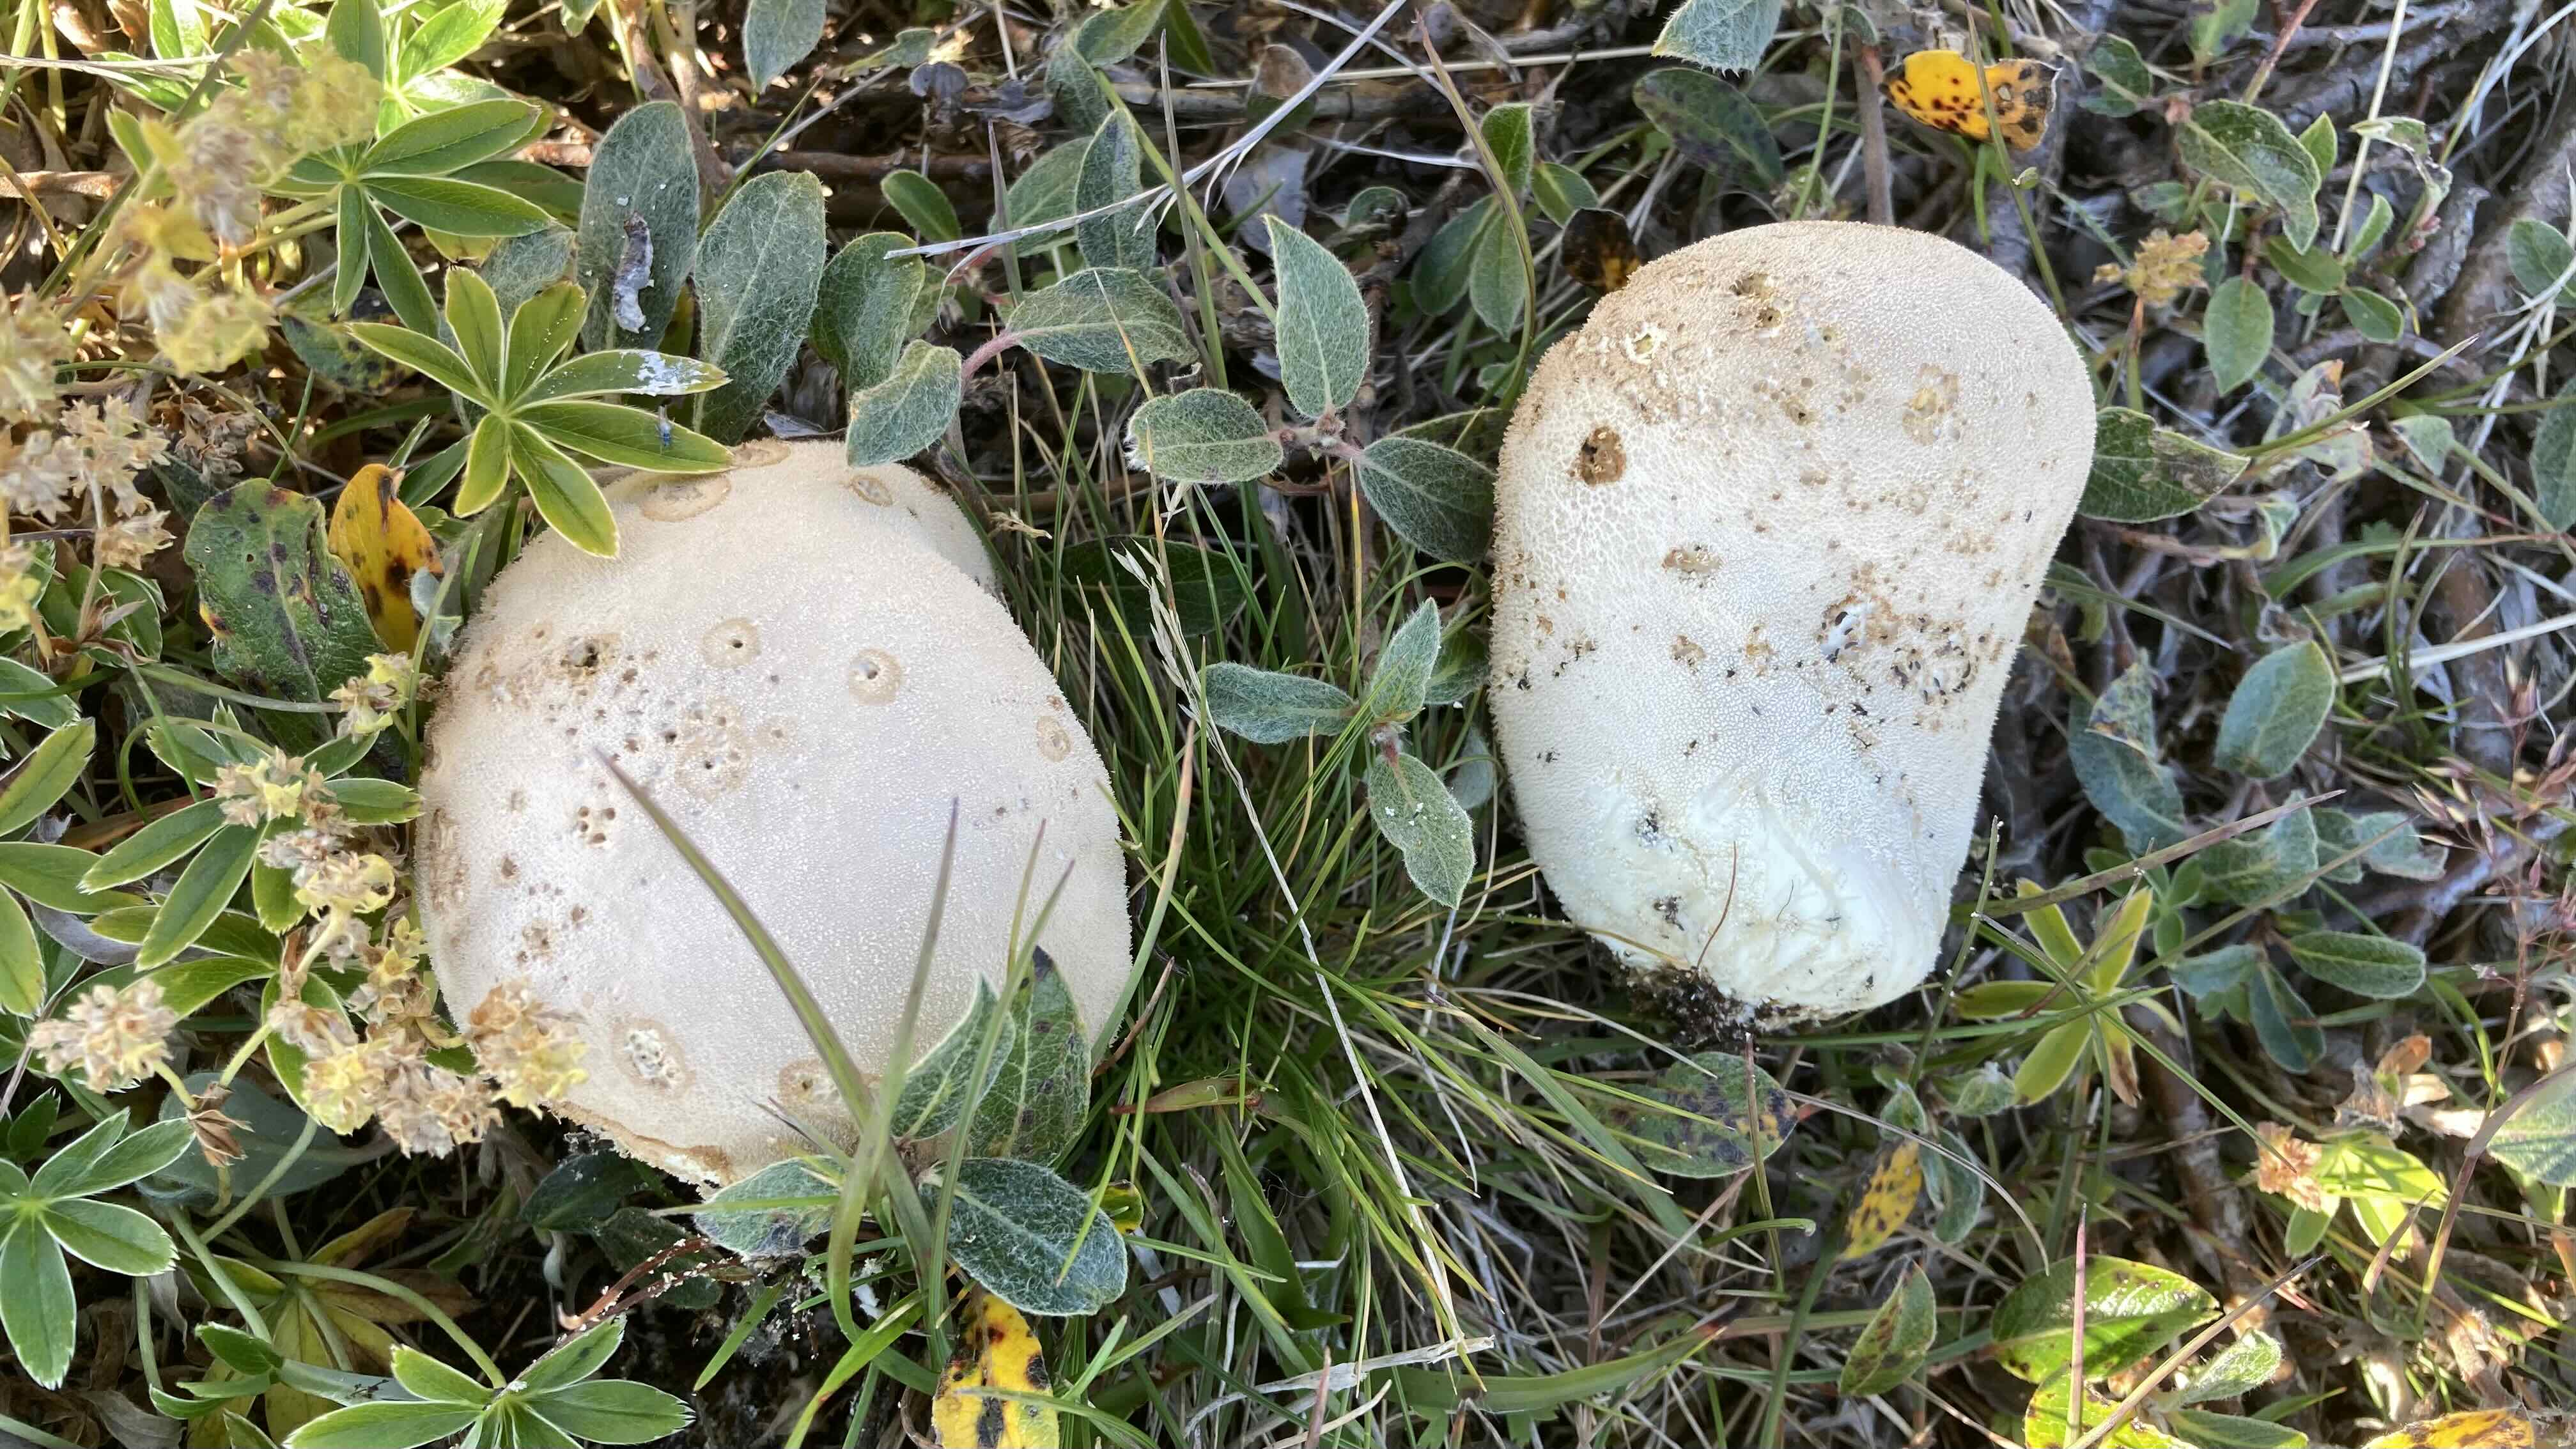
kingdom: Fungi
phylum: Basidiomycota
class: Agaricomycetes
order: Agaricales
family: Agaricaceae
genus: Lycoperdon
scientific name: Lycoperdon
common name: støvbold
